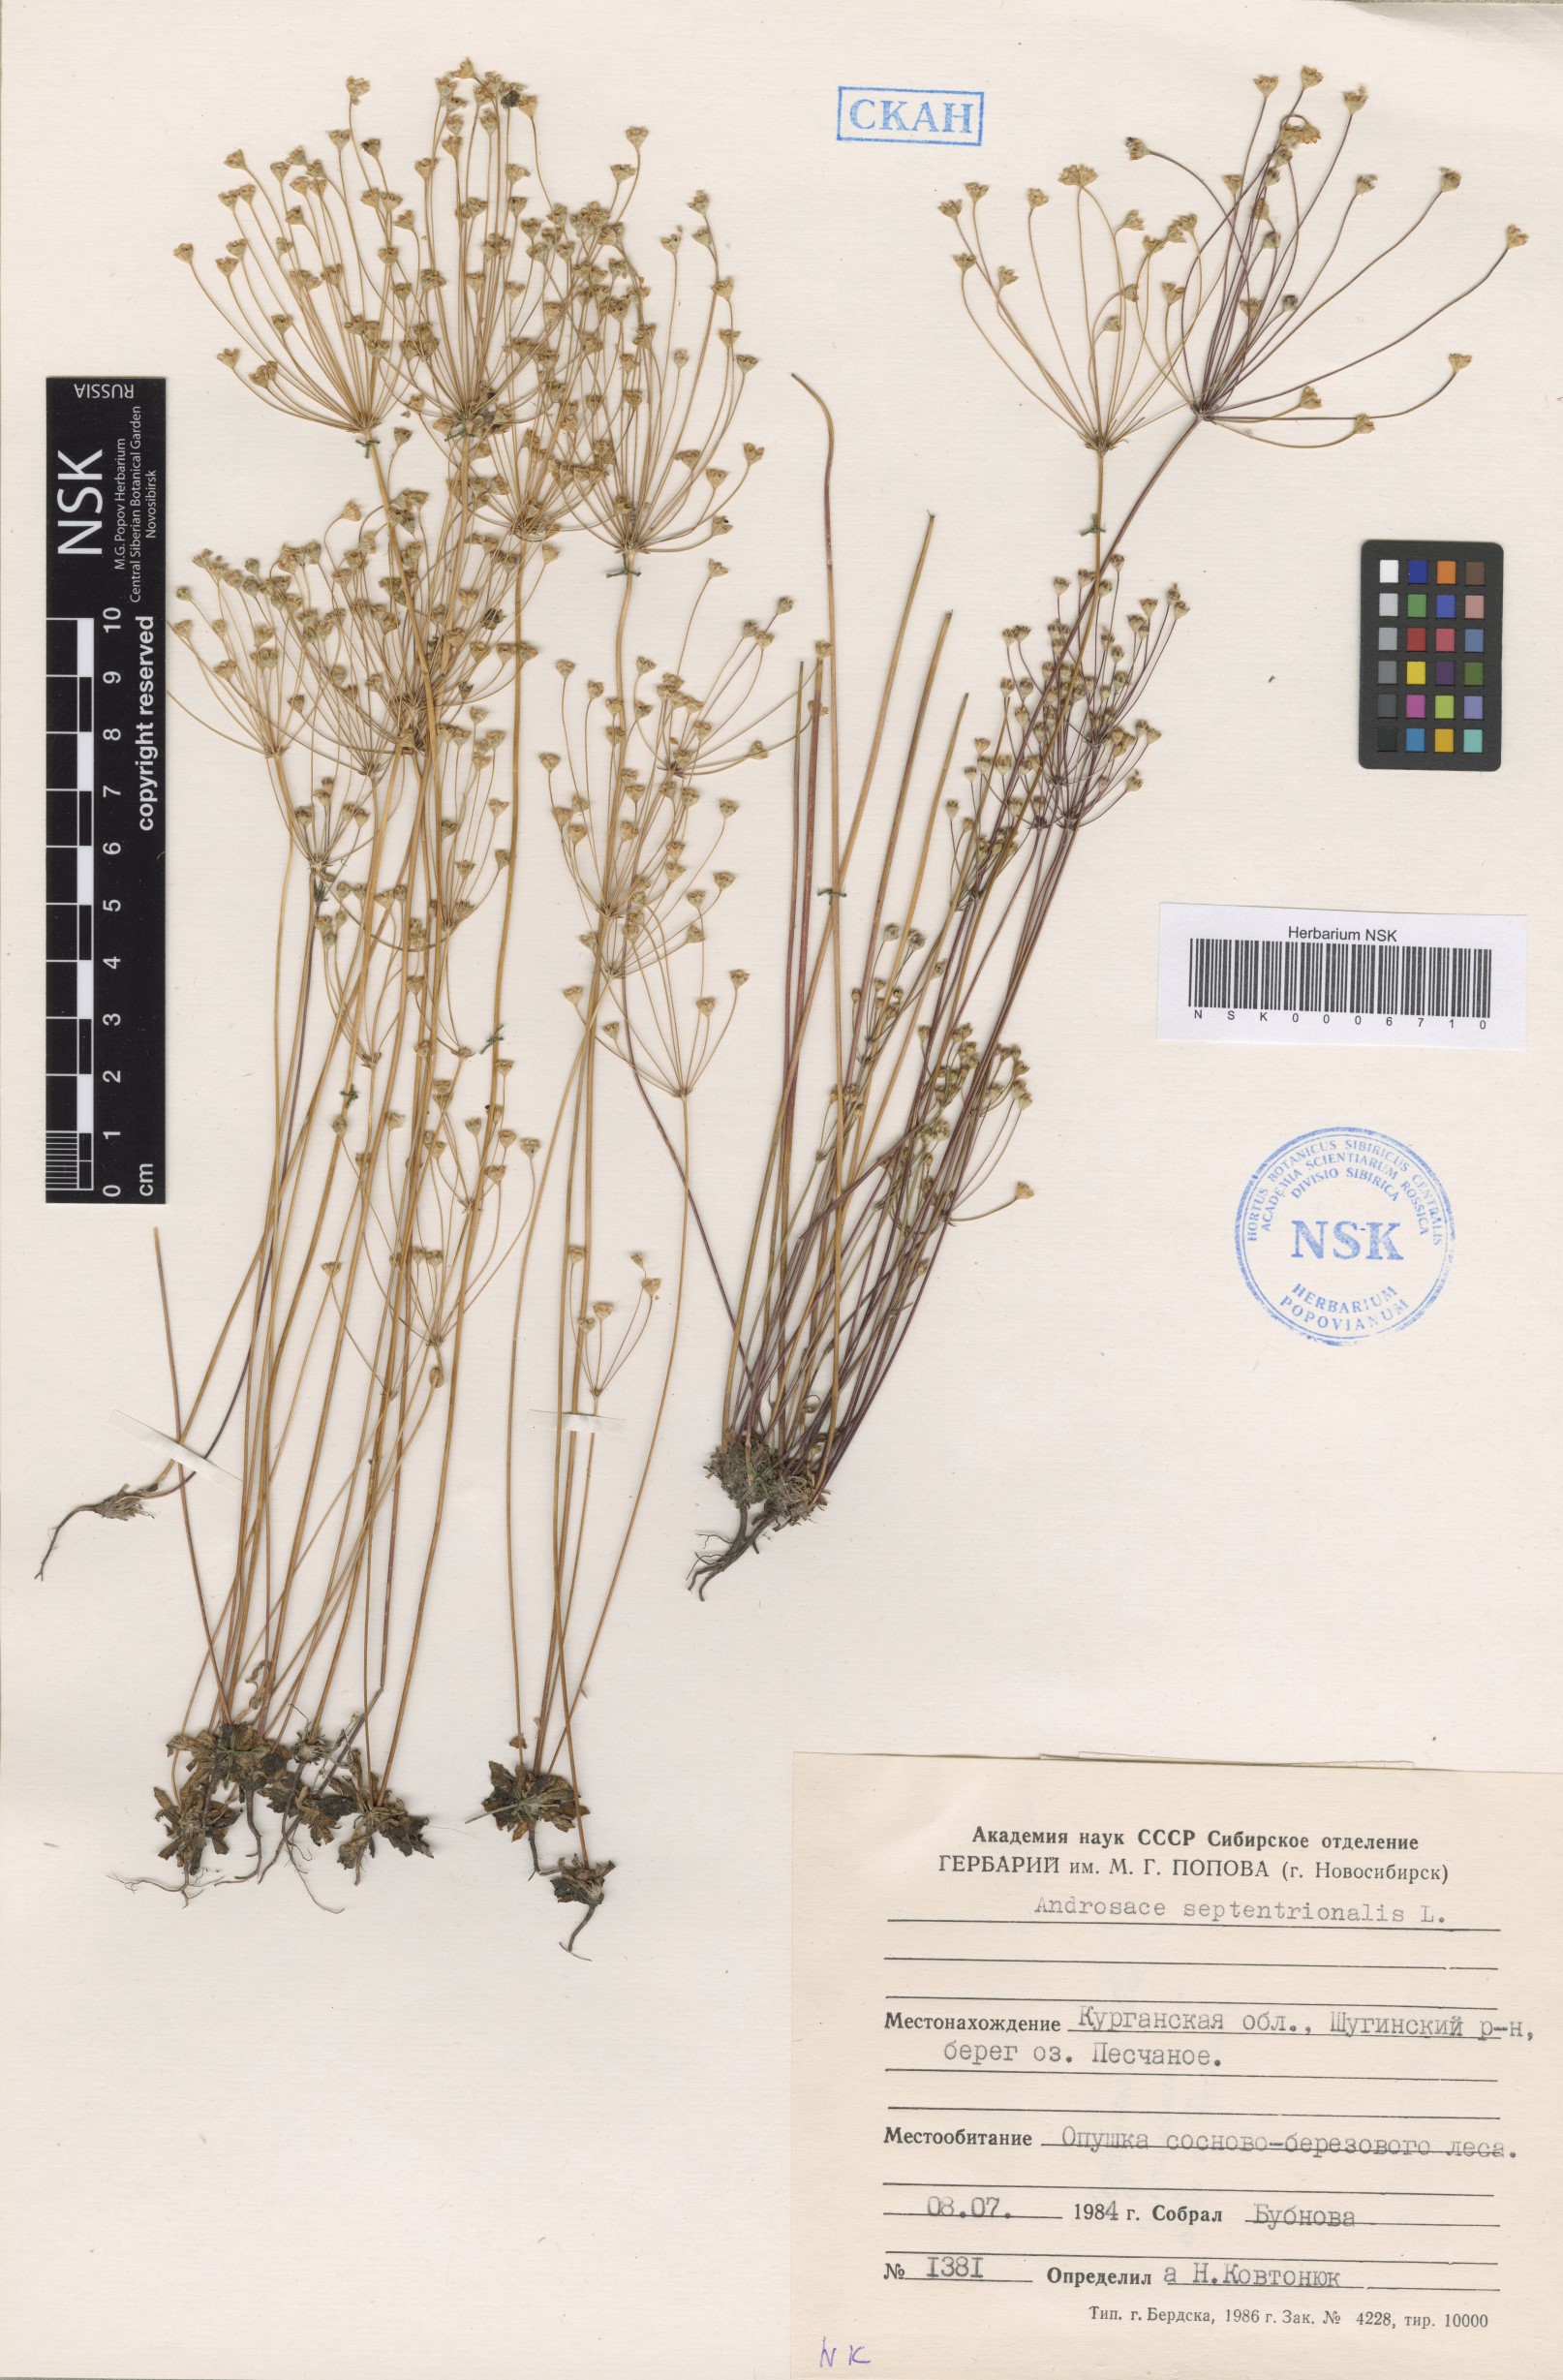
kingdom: Plantae
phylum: Tracheophyta
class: Magnoliopsida
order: Ericales
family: Primulaceae
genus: Androsace
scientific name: Androsace septentrionalis
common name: Hairy northern fairy-candelabra
